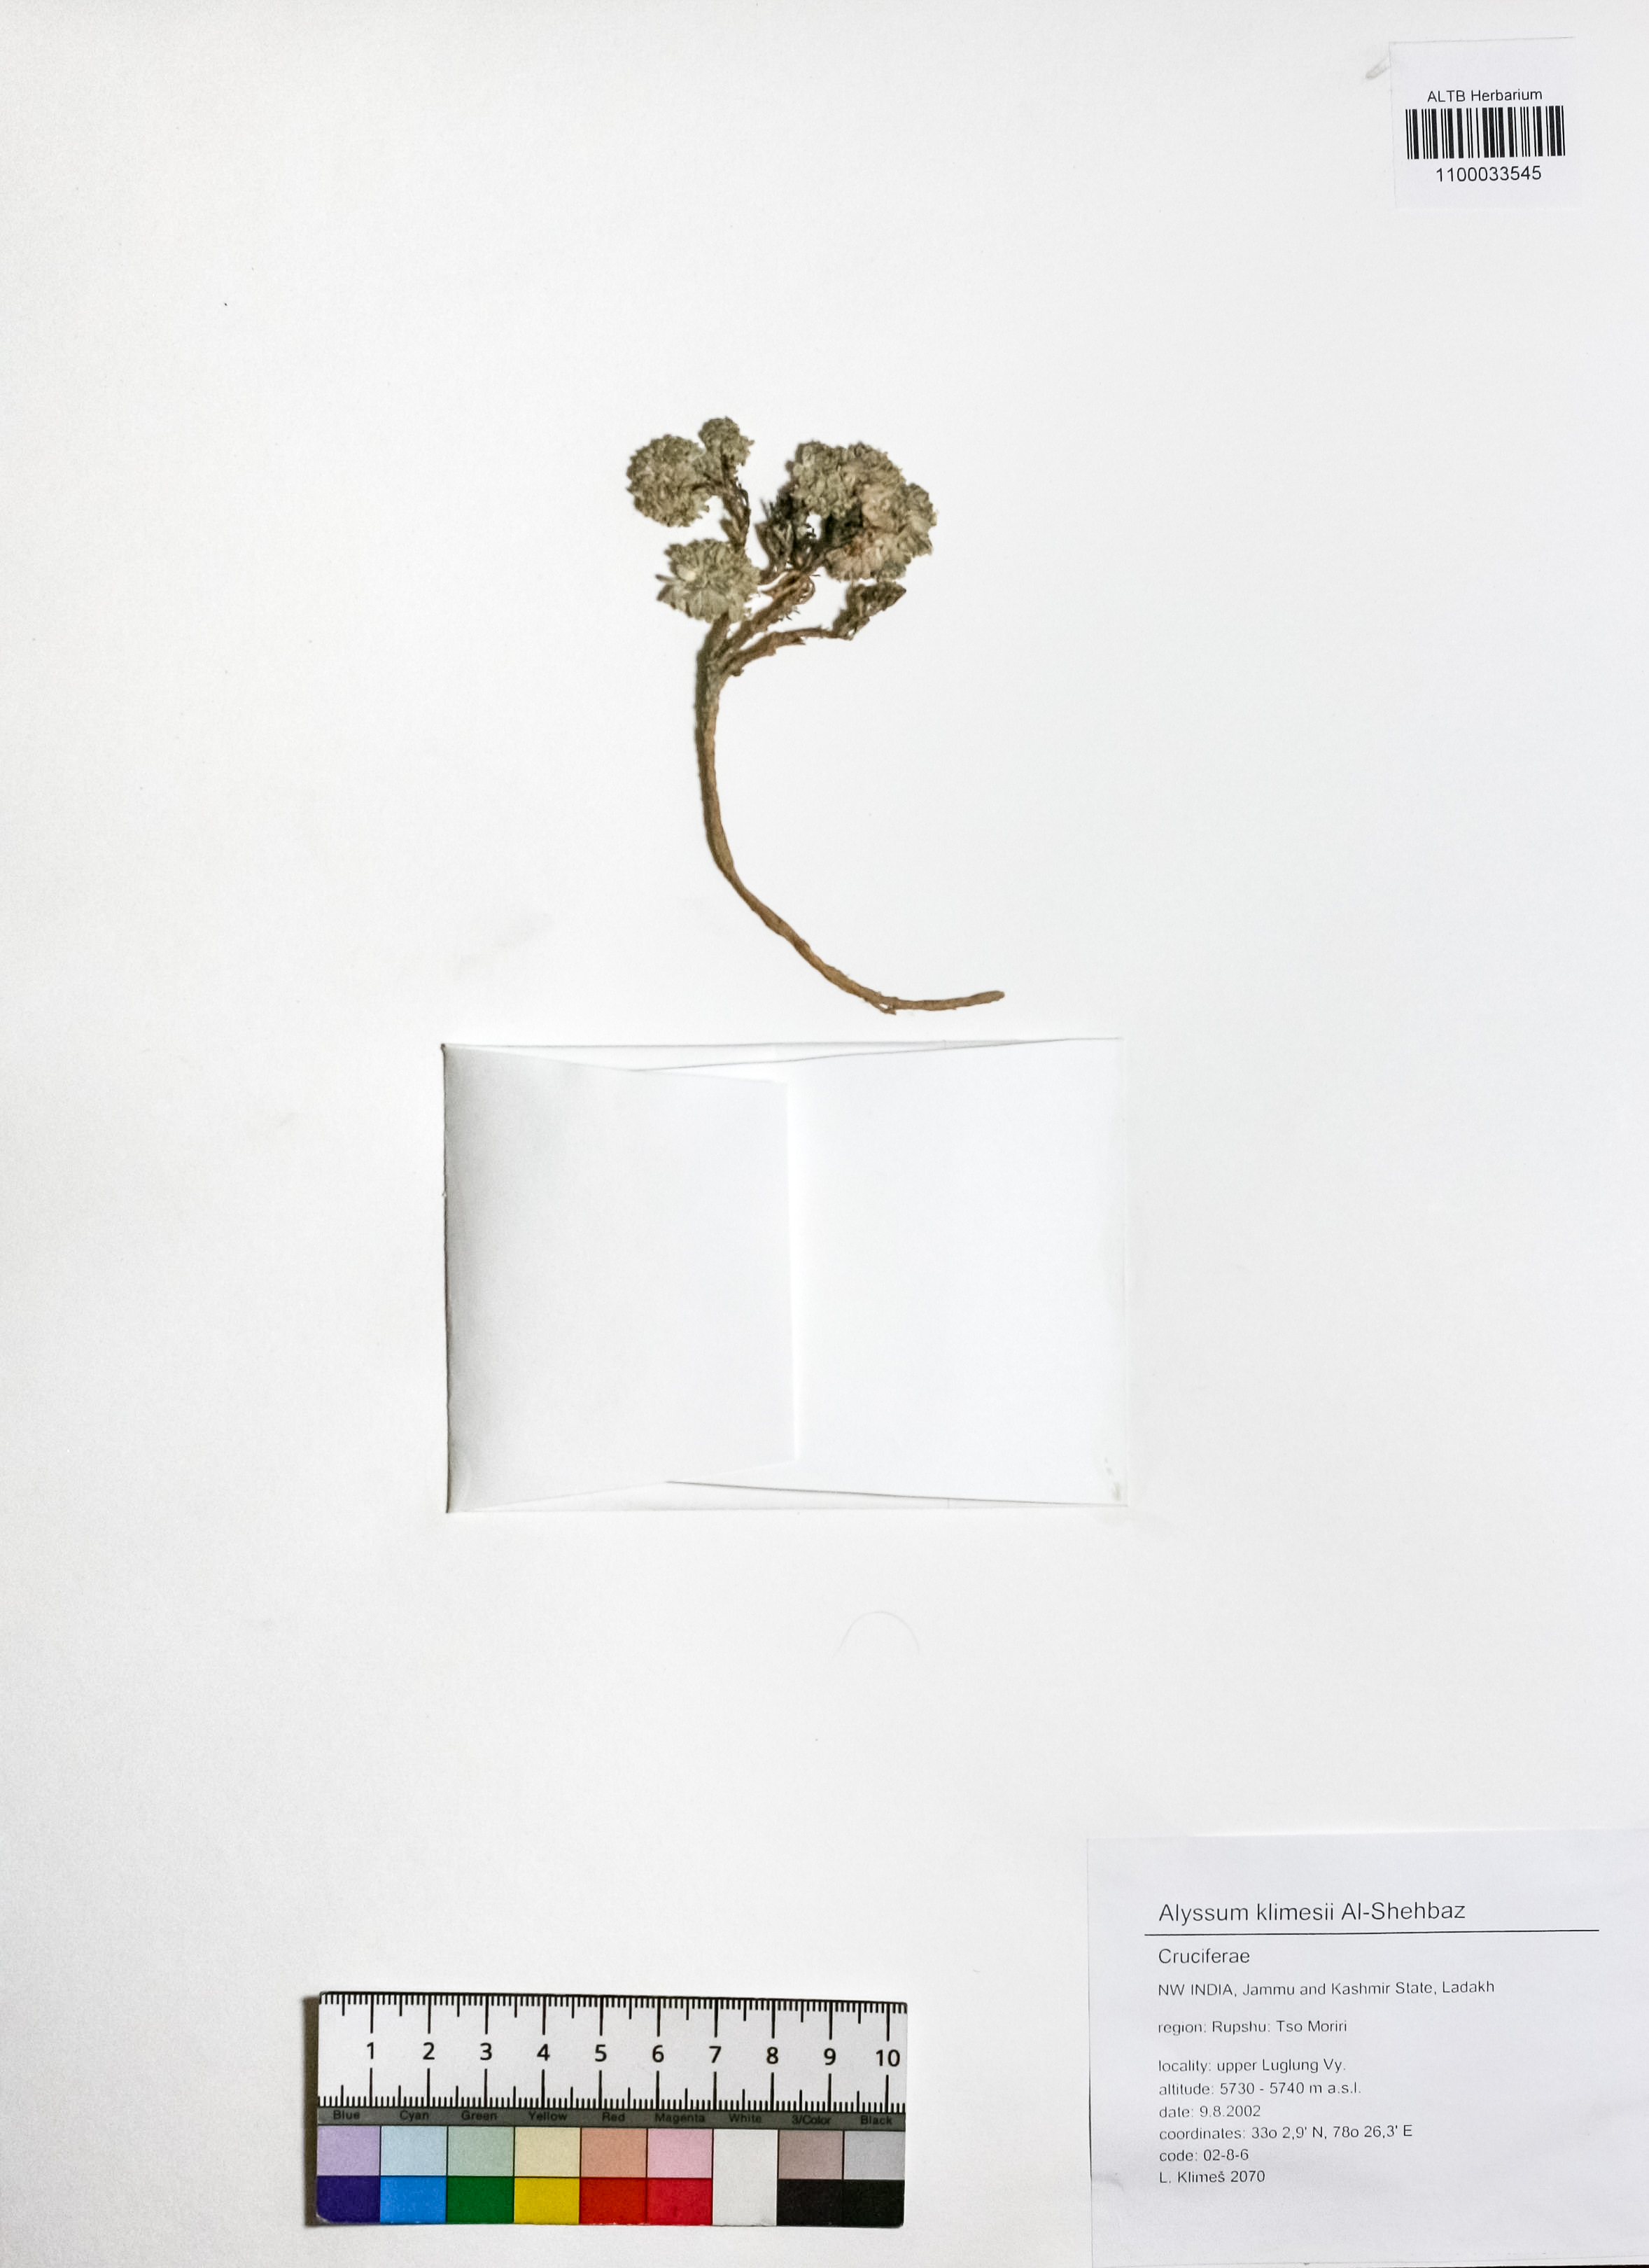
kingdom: Plantae
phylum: Tracheophyta
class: Magnoliopsida
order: Brassicales
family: Brassicaceae
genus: Ladakiella
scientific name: Ladakiella klimesii
